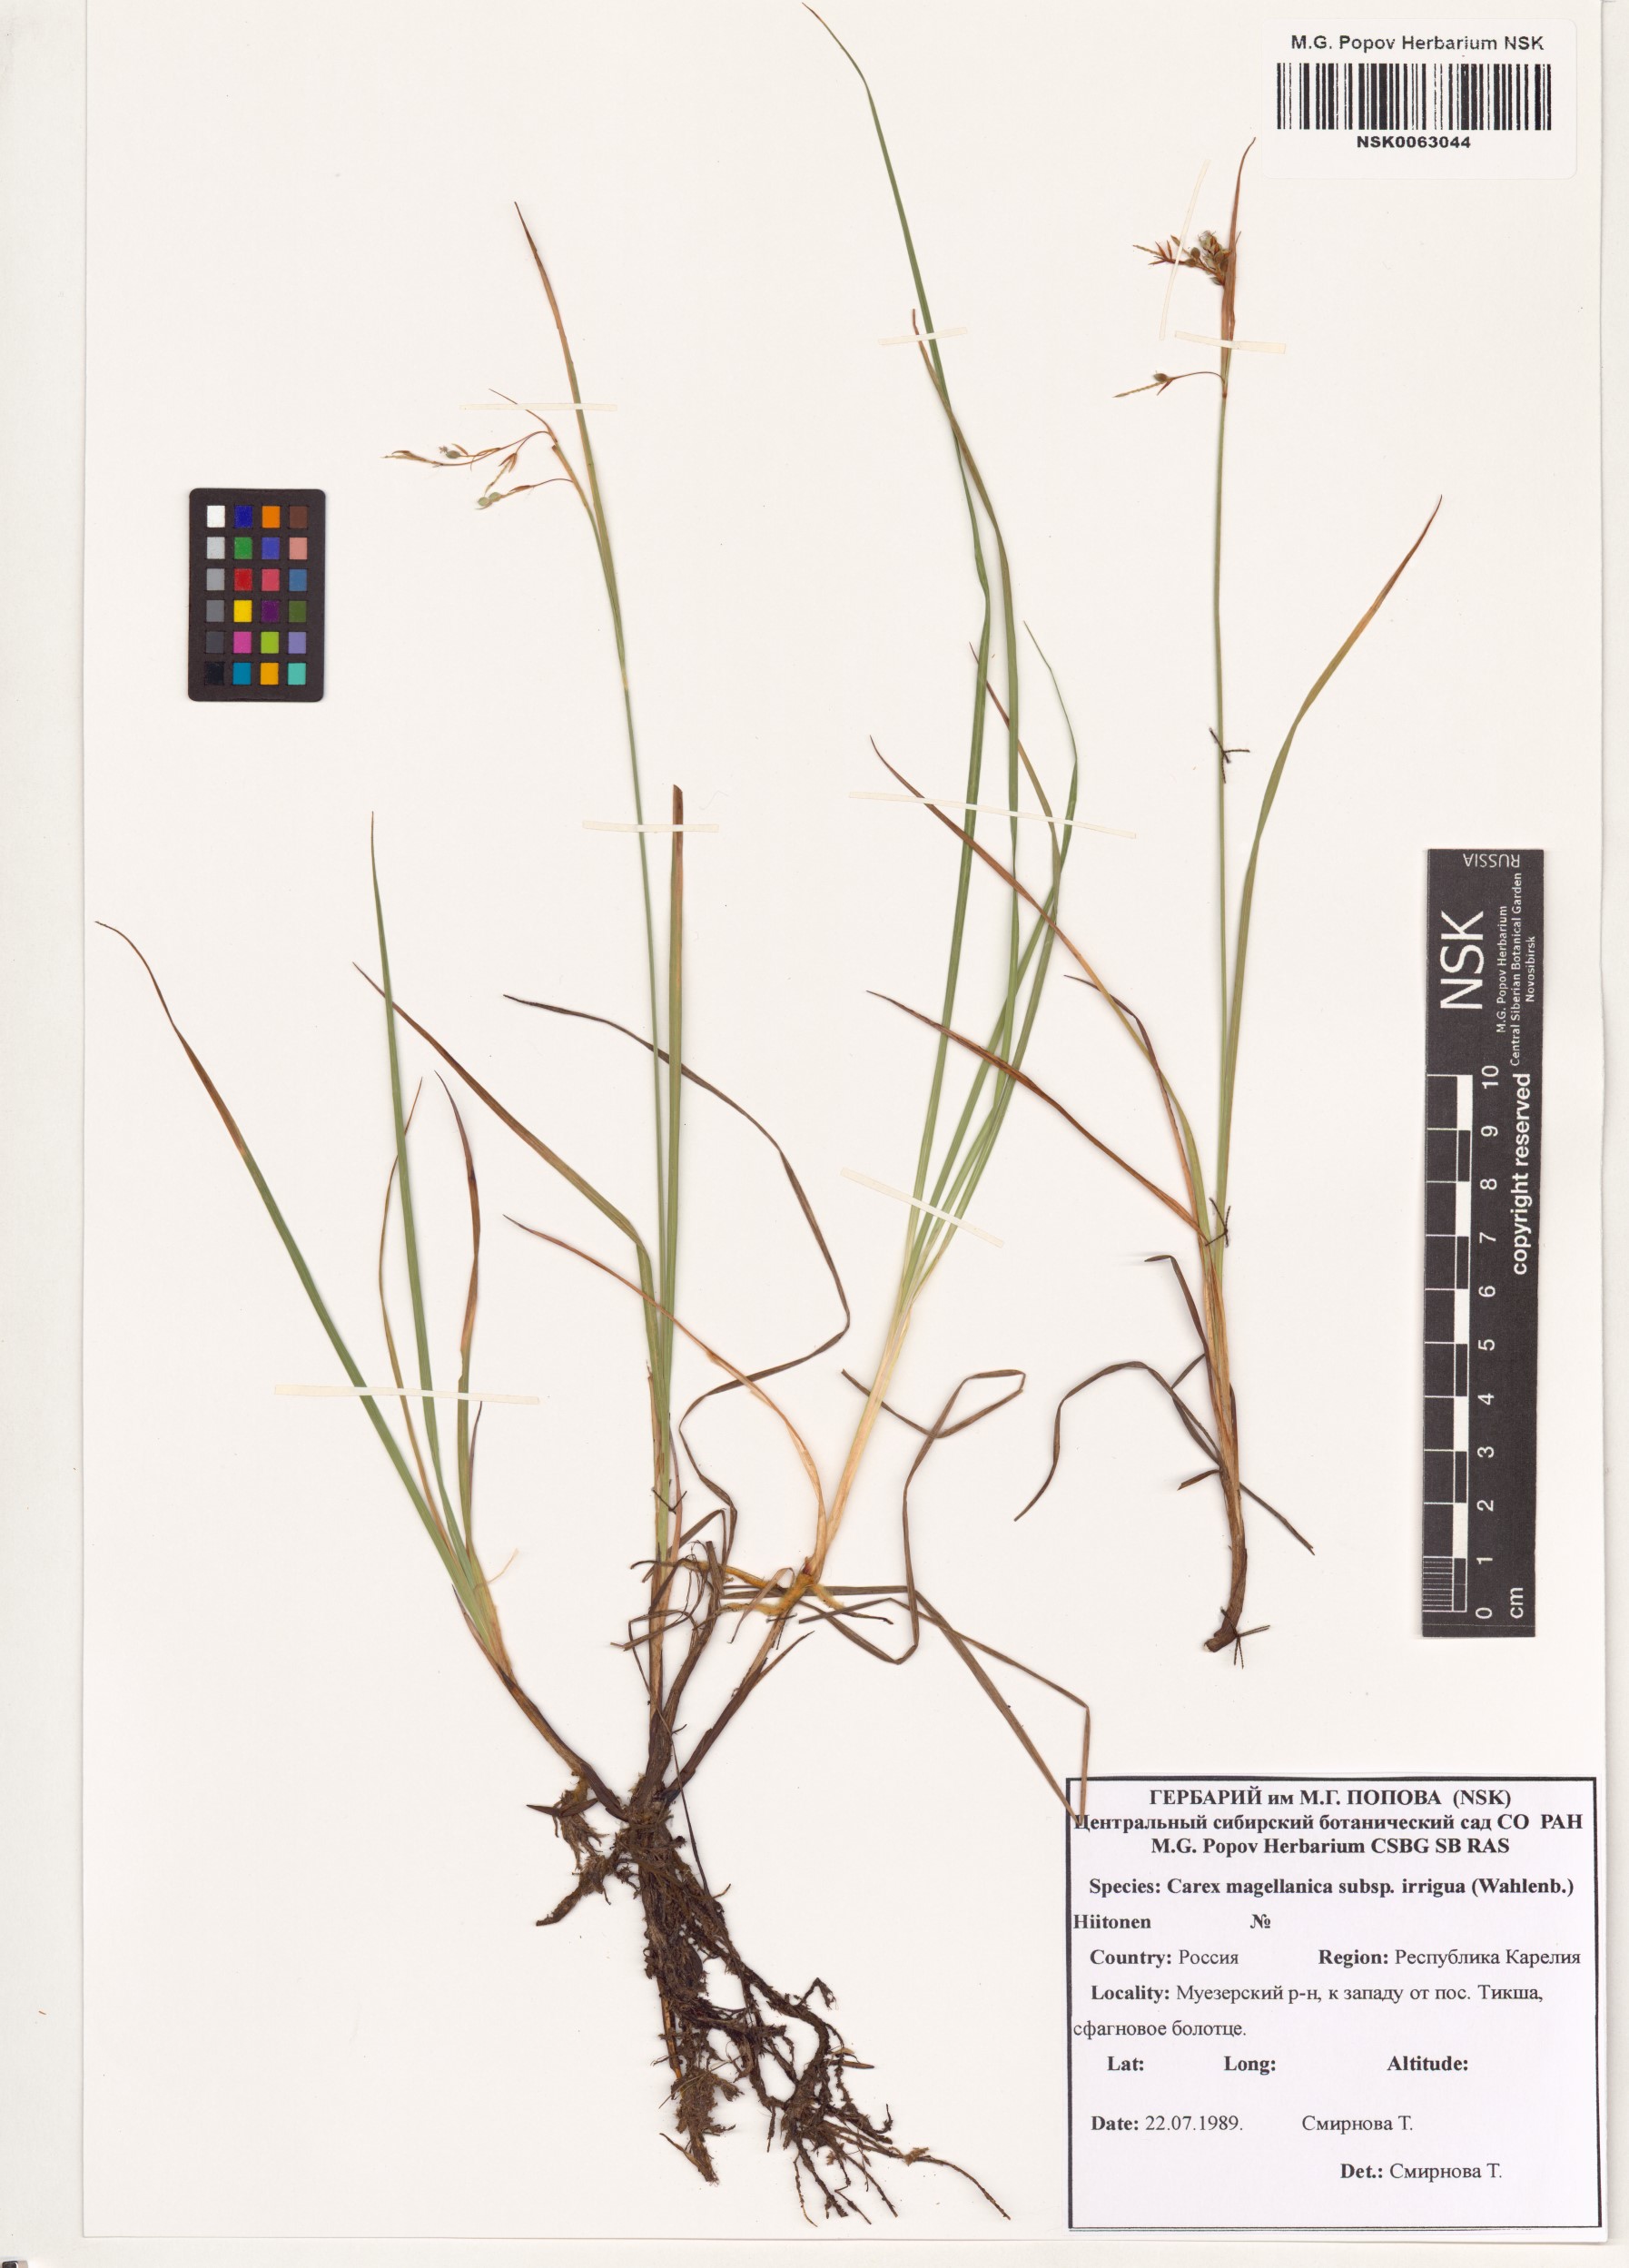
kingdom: Plantae
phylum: Tracheophyta
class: Liliopsida
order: Poales
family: Cyperaceae
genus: Carex
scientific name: Carex magellanica
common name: Bog sedge
